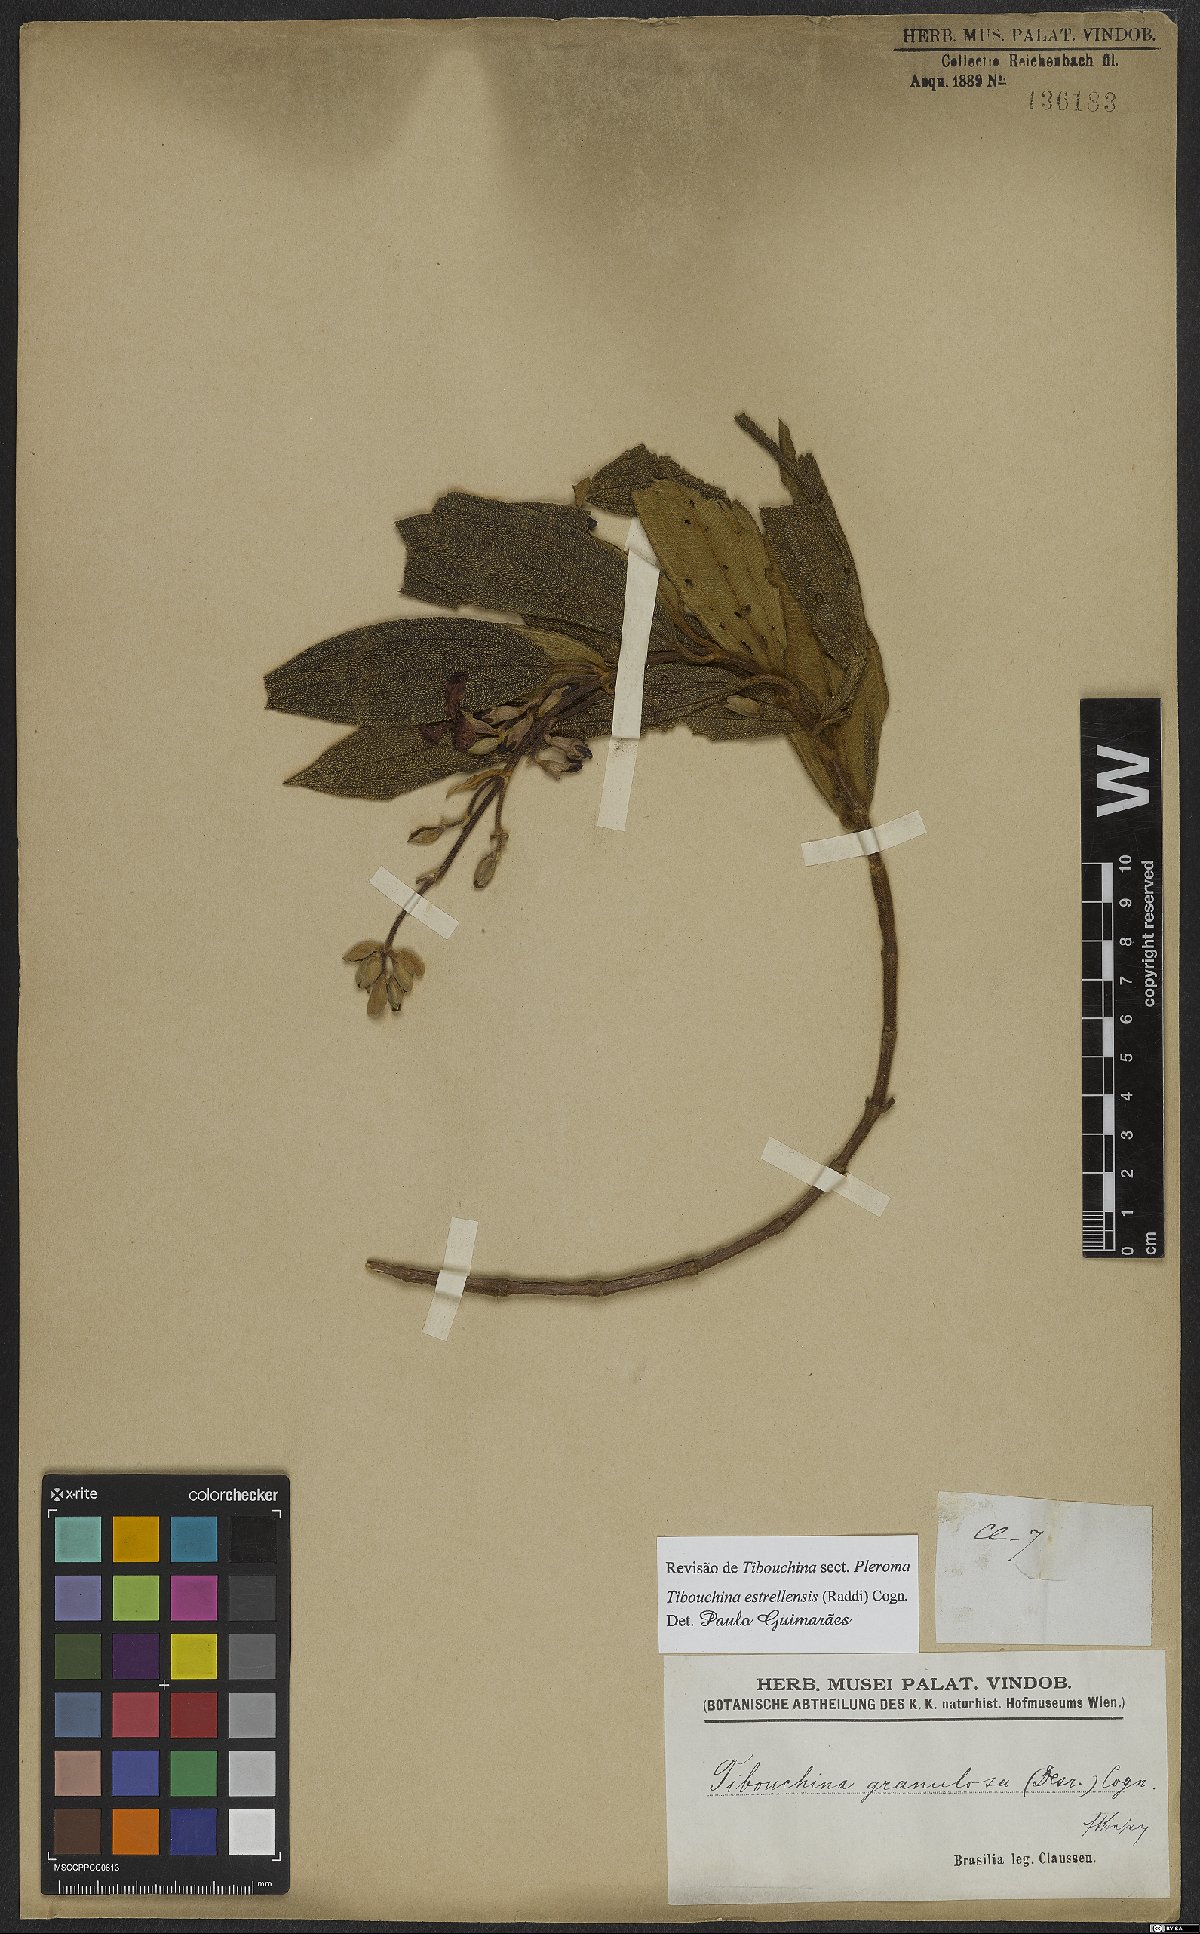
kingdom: Plantae
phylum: Tracheophyta
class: Magnoliopsida
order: Myrtales
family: Melastomataceae
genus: Pleroma
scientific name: Pleroma estrellense
